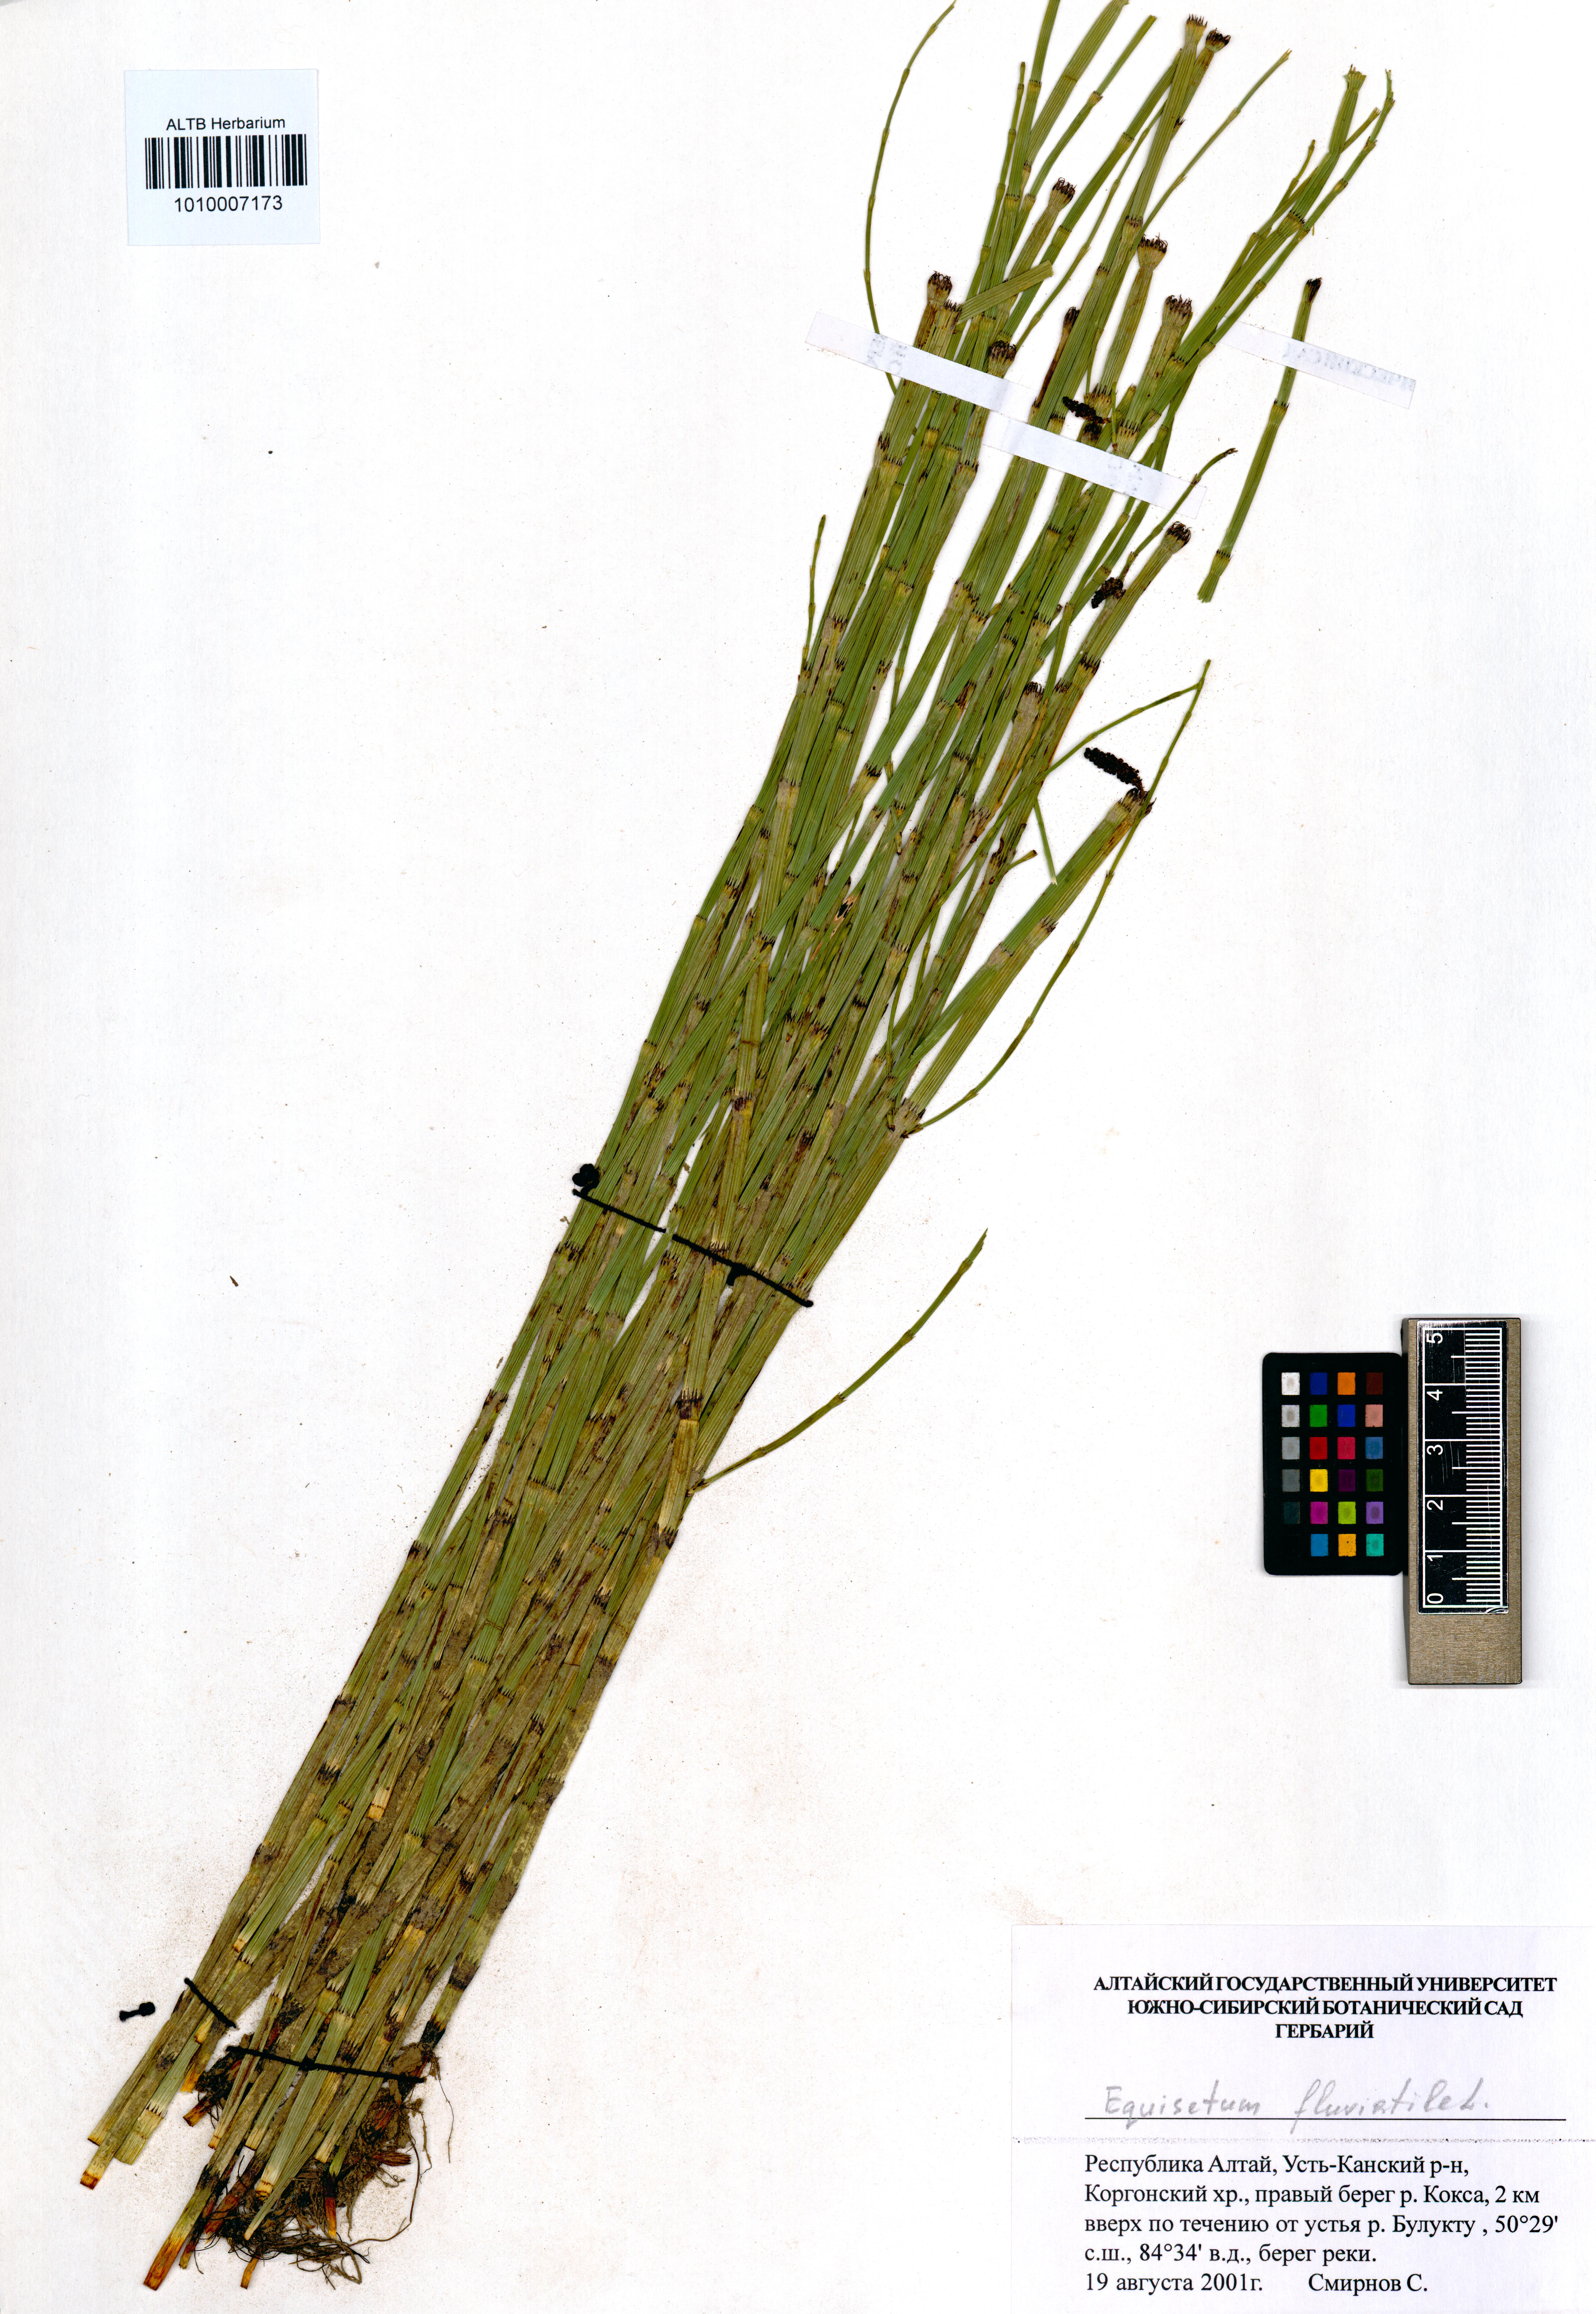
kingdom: Plantae
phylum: Tracheophyta
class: Polypodiopsida
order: Equisetales
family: Equisetaceae
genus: Equisetum
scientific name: Equisetum fluviatile
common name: Water horsetail
